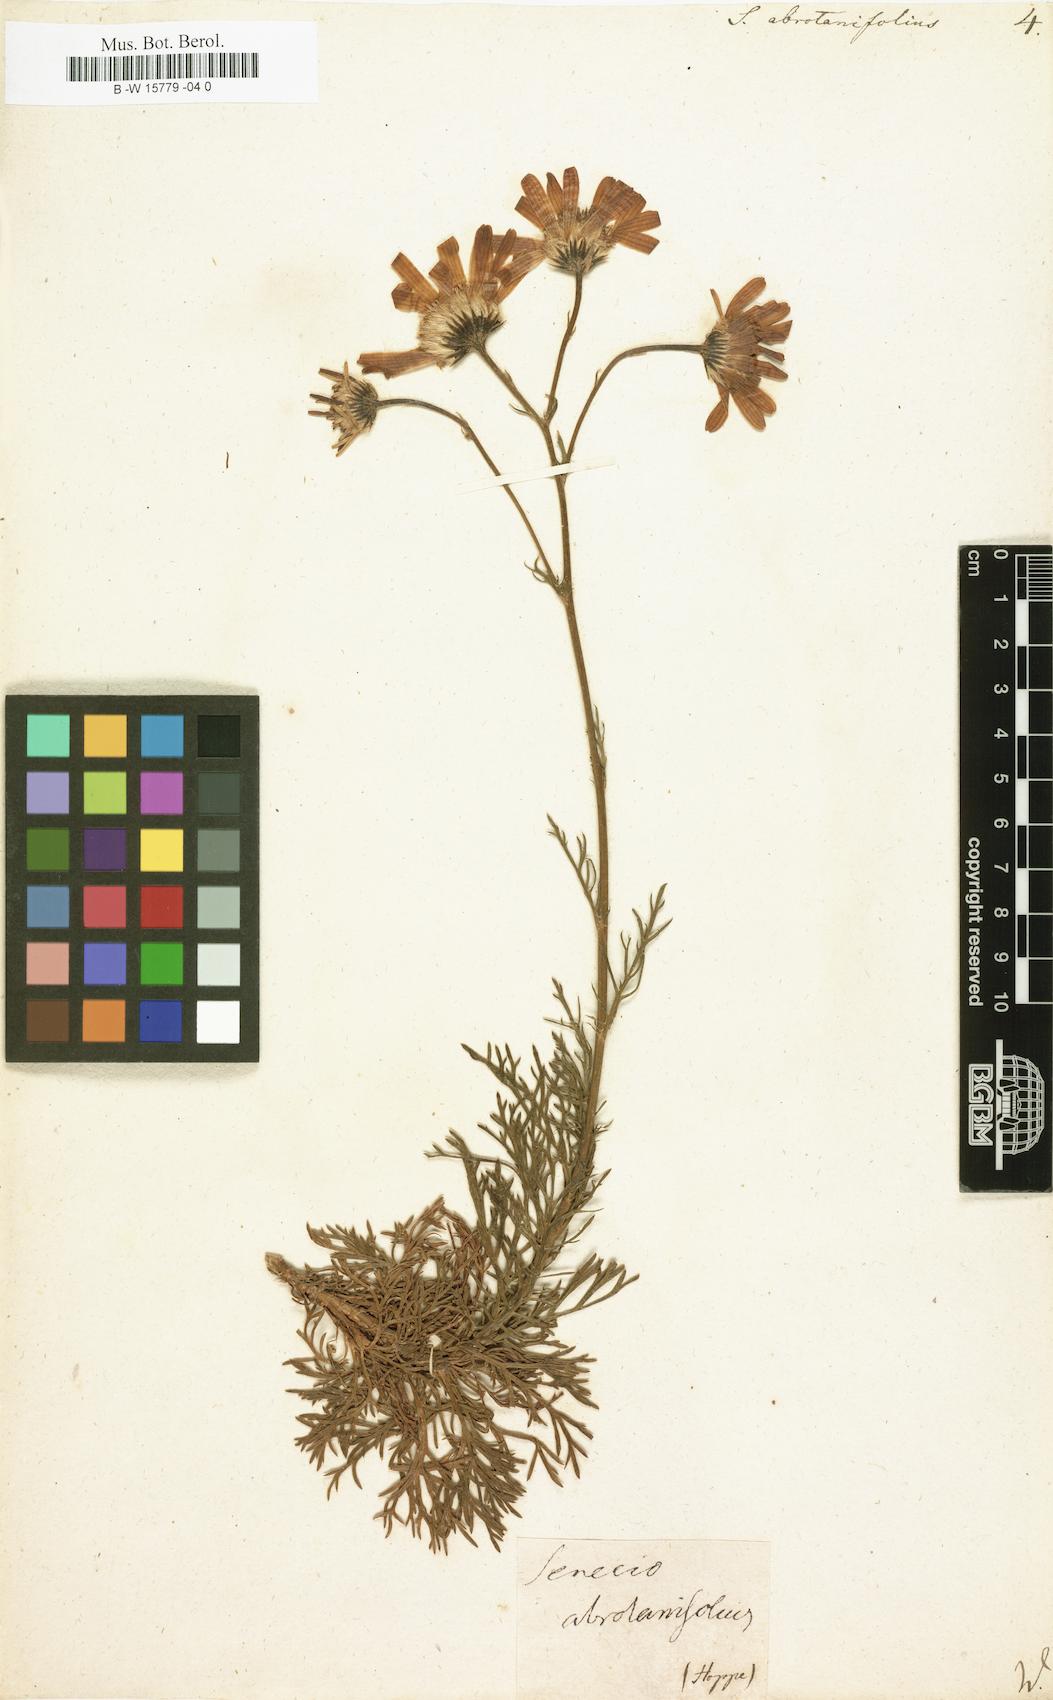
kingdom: Plantae
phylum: Tracheophyta
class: Magnoliopsida
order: Asterales
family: Asteraceae
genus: Jacobaea
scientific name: Jacobaea abrotanifolia
